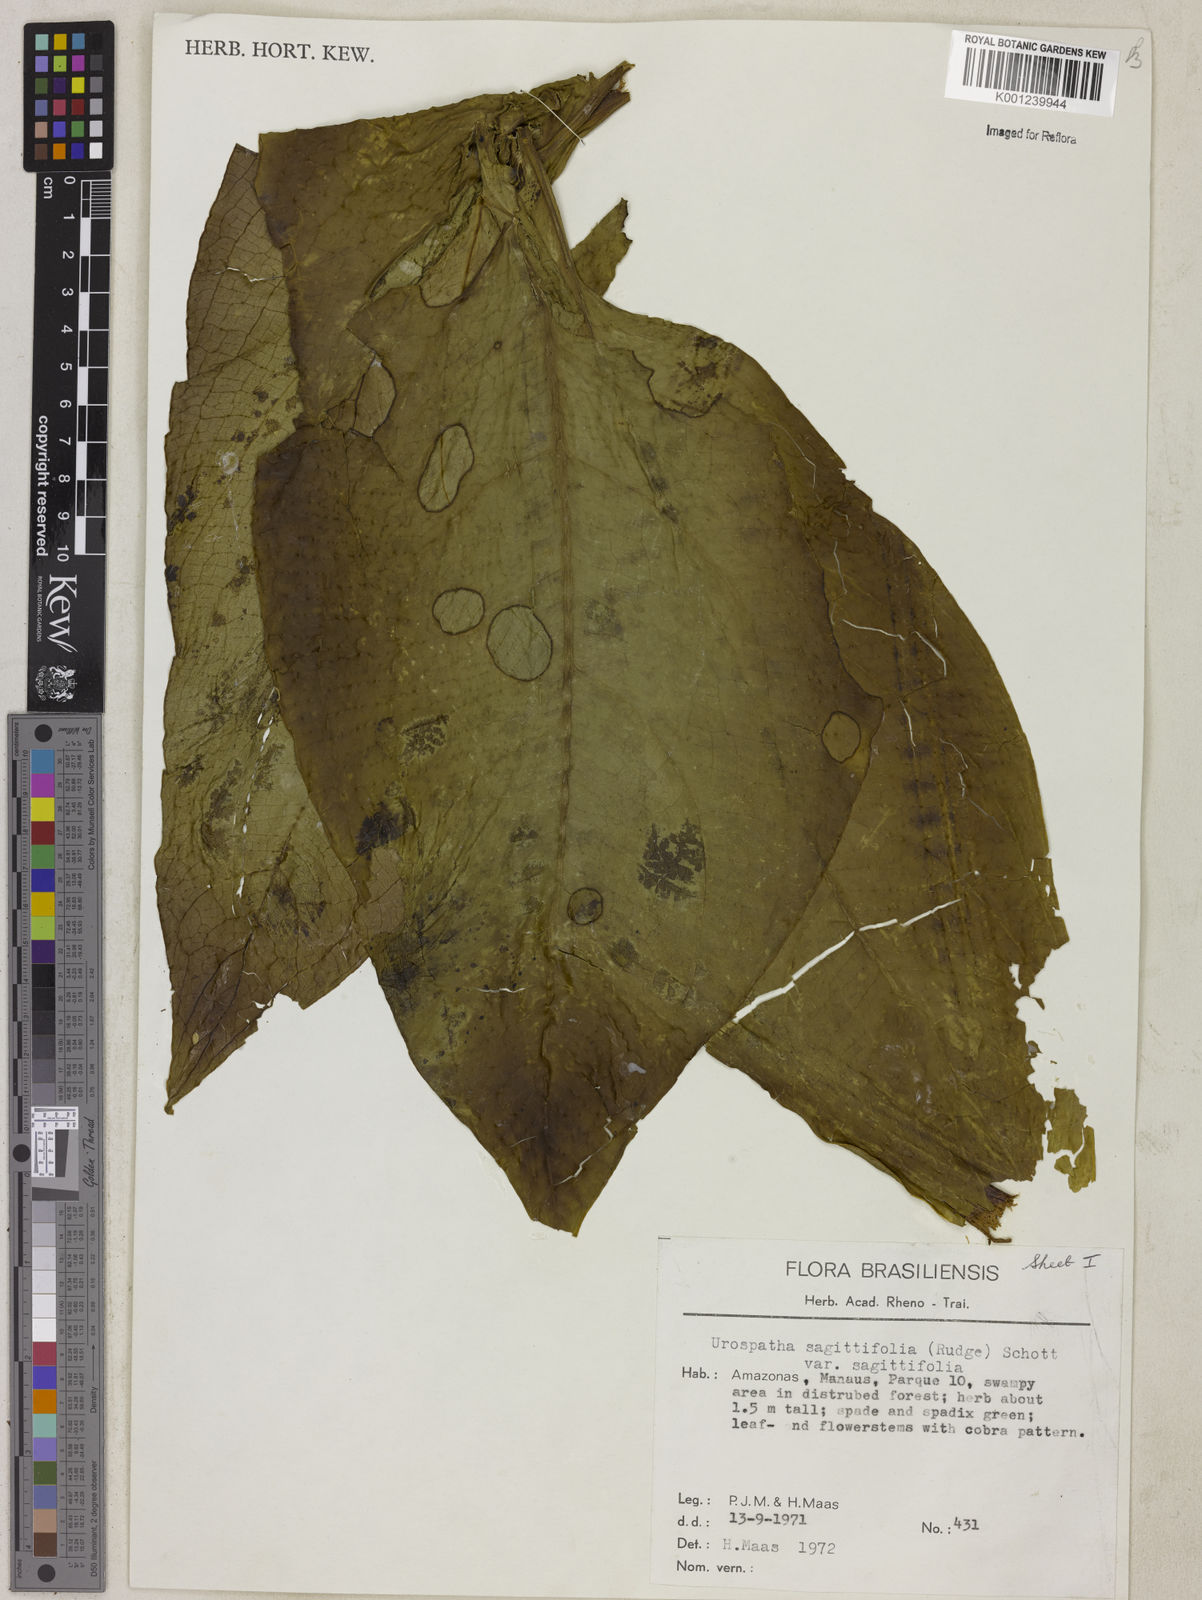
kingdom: Plantae
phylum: Tracheophyta
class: Liliopsida
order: Alismatales
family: Araceae
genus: Urospatha
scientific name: Urospatha sagittifolia
